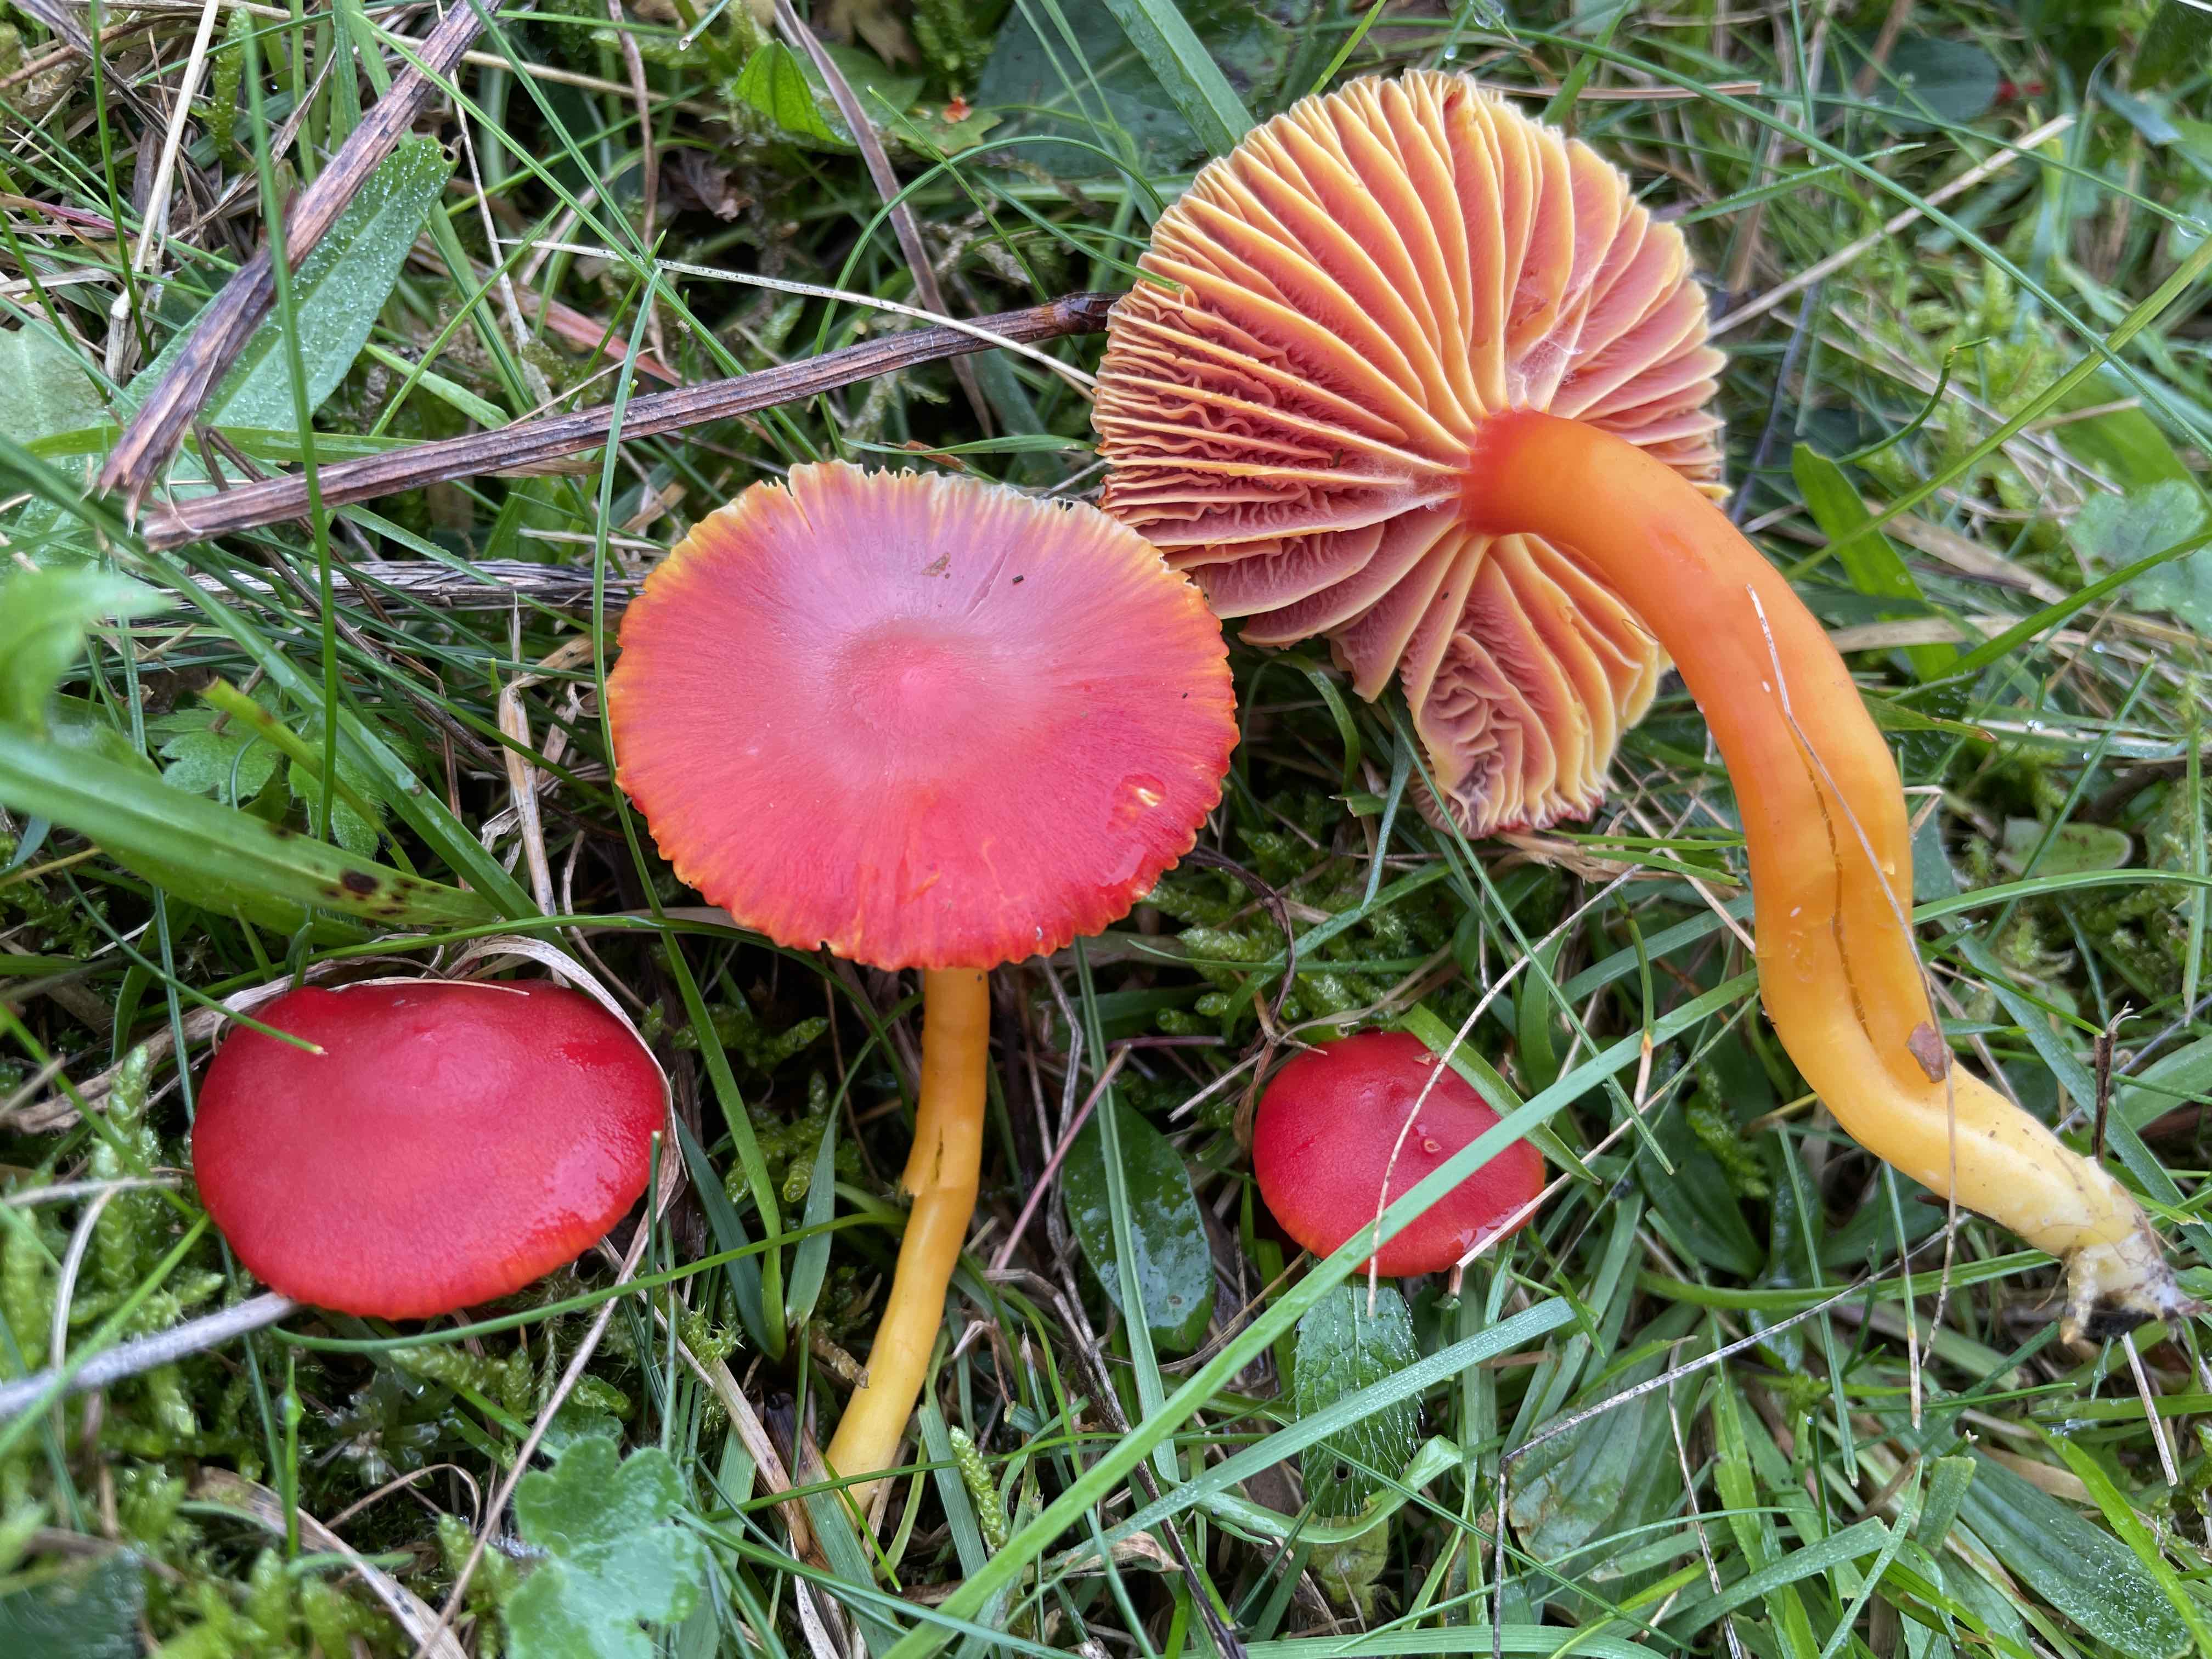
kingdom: Fungi
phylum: Basidiomycota
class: Agaricomycetes
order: Agaricales
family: Hygrophoraceae
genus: Hygrocybe
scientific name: Hygrocybe coccinea
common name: cinnober-vokshat
